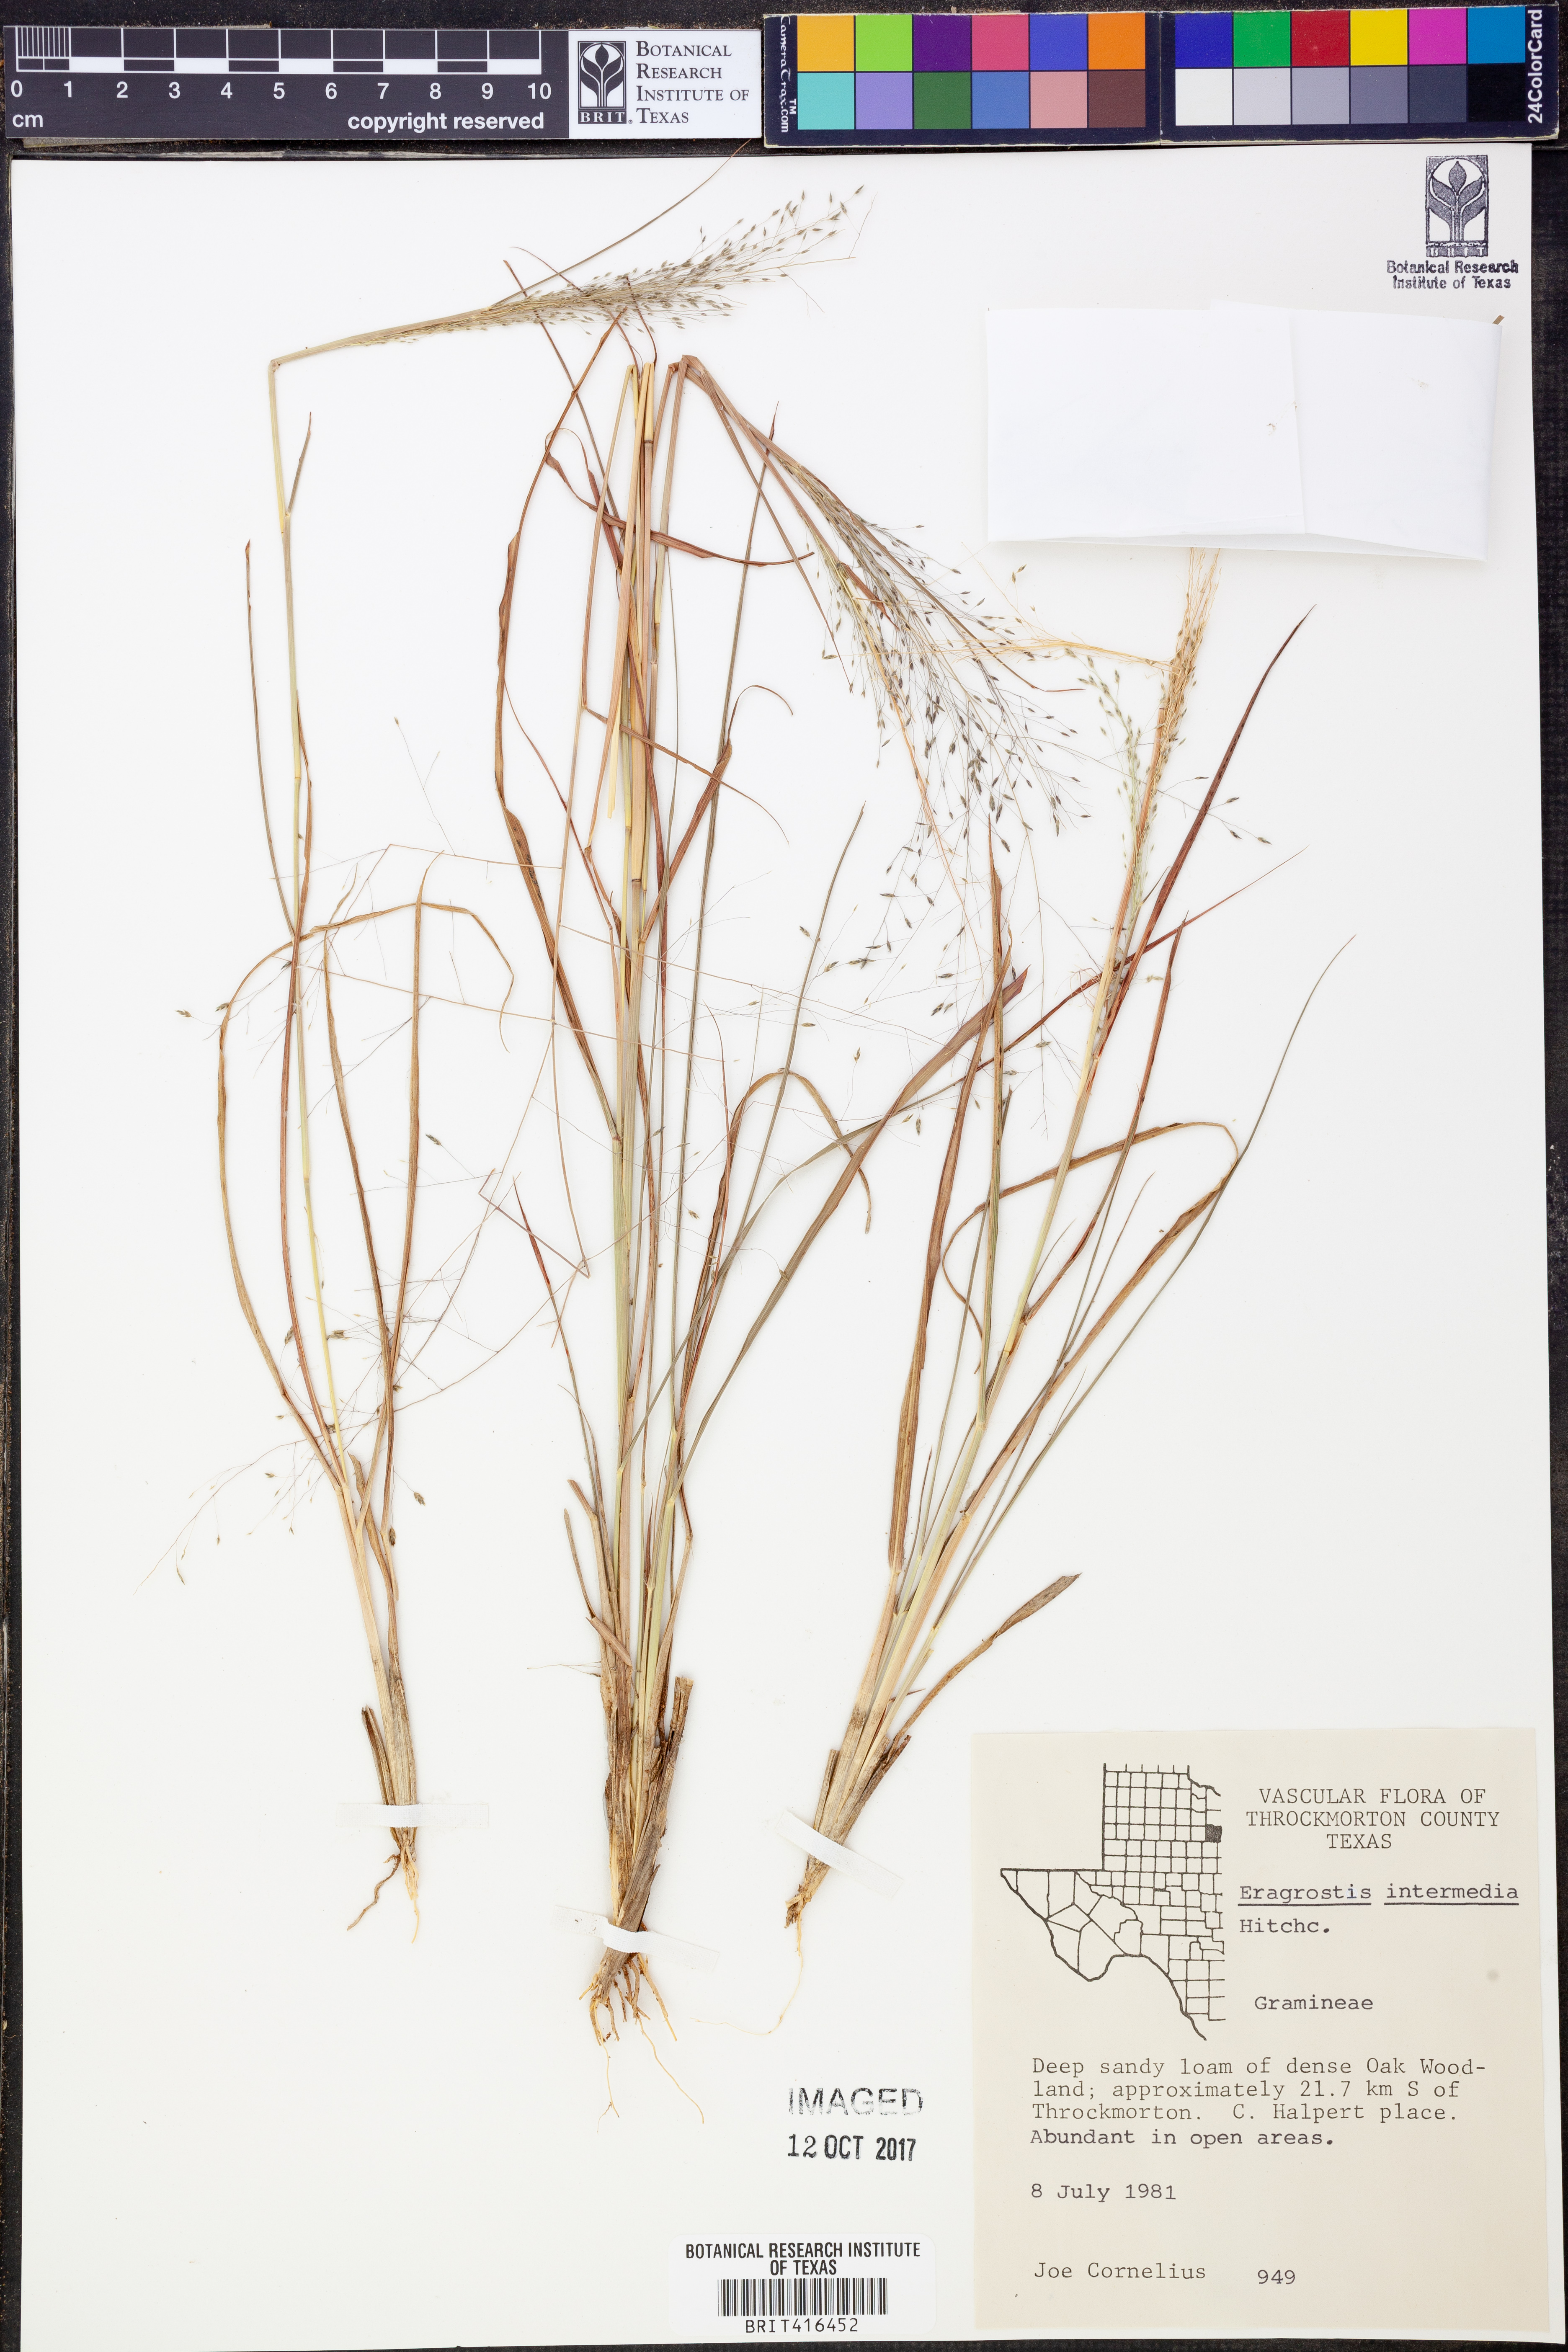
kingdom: Plantae
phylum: Tracheophyta
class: Liliopsida
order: Poales
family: Poaceae
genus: Eragrostis
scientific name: Eragrostis intermedia
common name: Plains love grass
